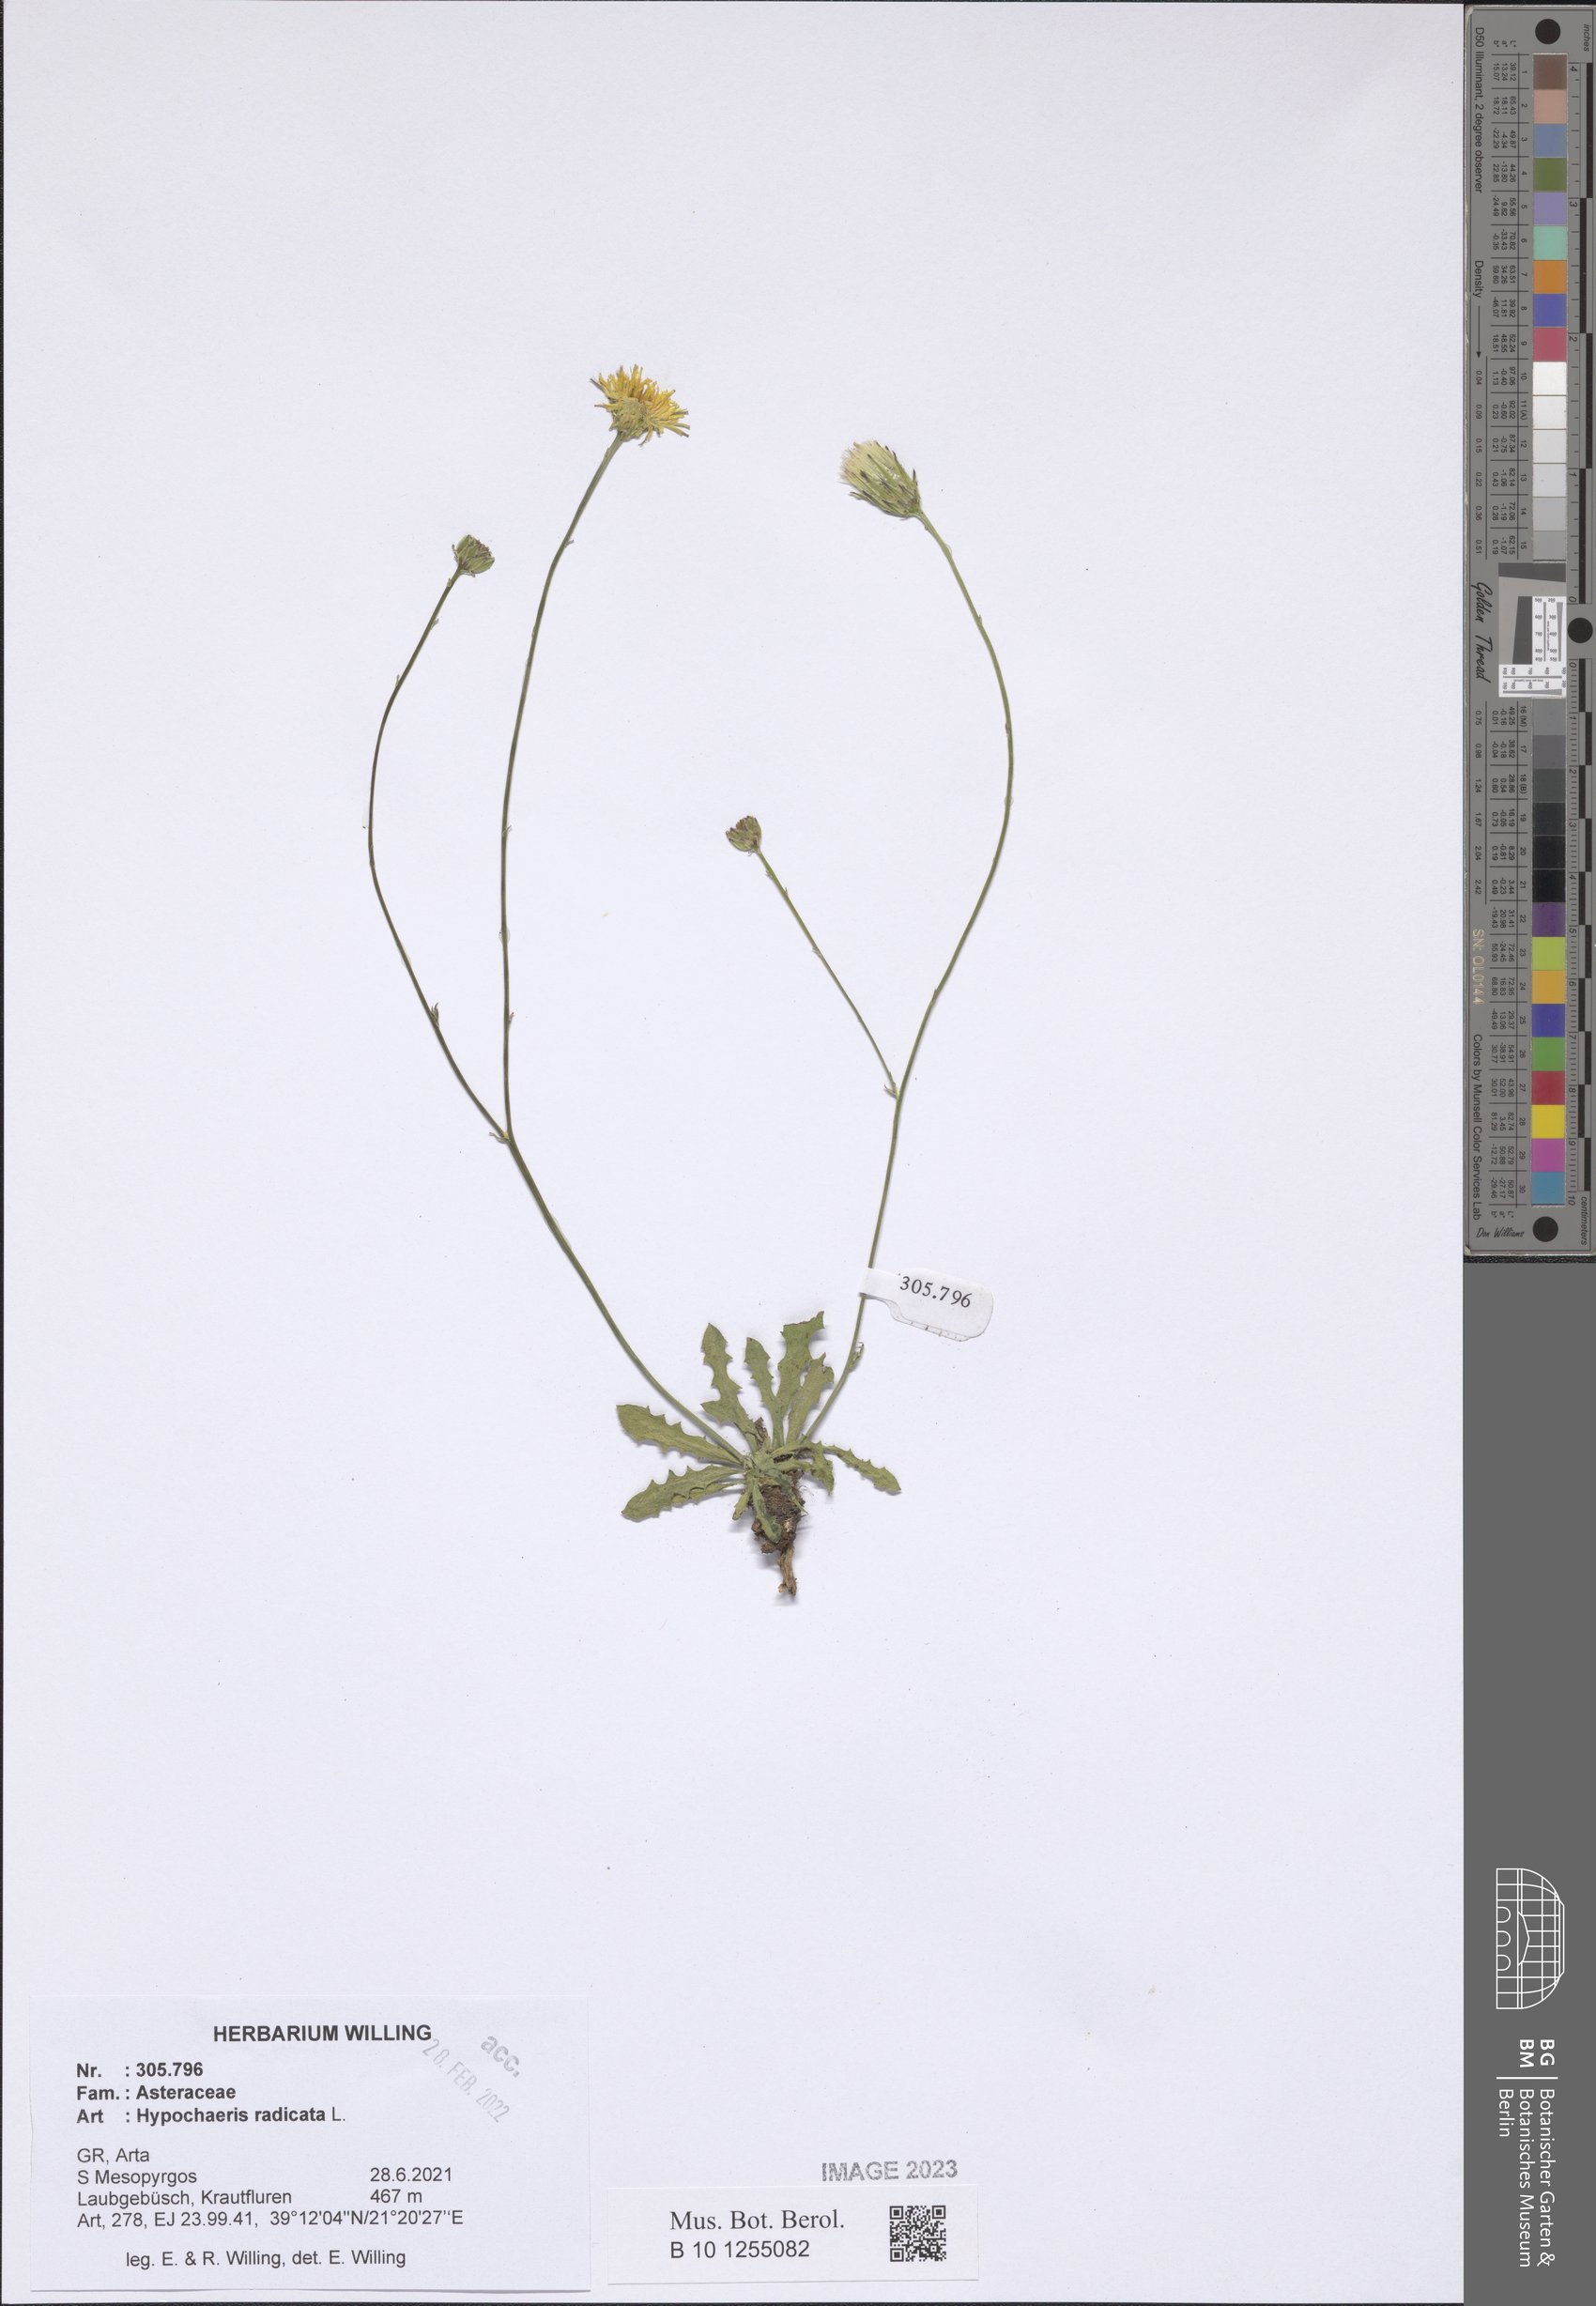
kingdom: Plantae
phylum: Tracheophyta
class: Magnoliopsida
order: Asterales
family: Asteraceae
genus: Hypochaeris
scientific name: Hypochaeris radicata
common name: Flatweed
